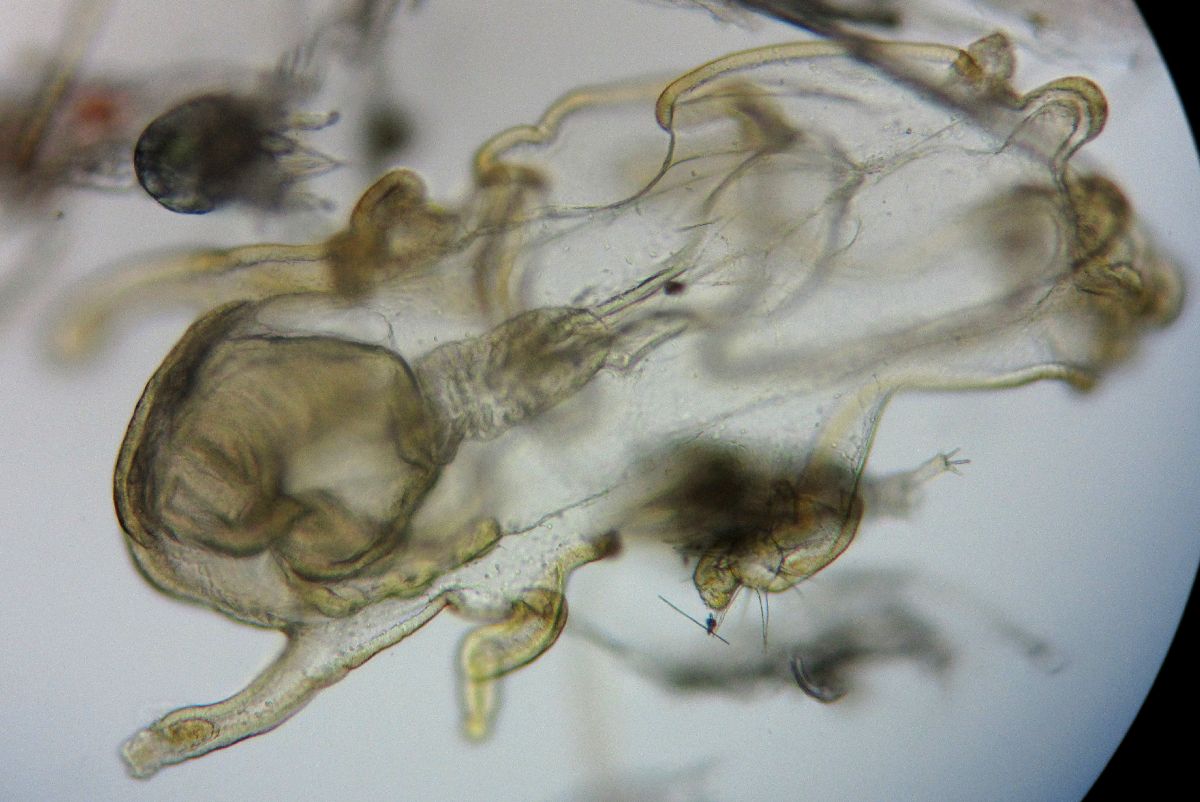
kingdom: Animalia
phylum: Echinodermata
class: Asteroidea
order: Forcipulatida
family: Asteriidae
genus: Asterias
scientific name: Asterias rubens
